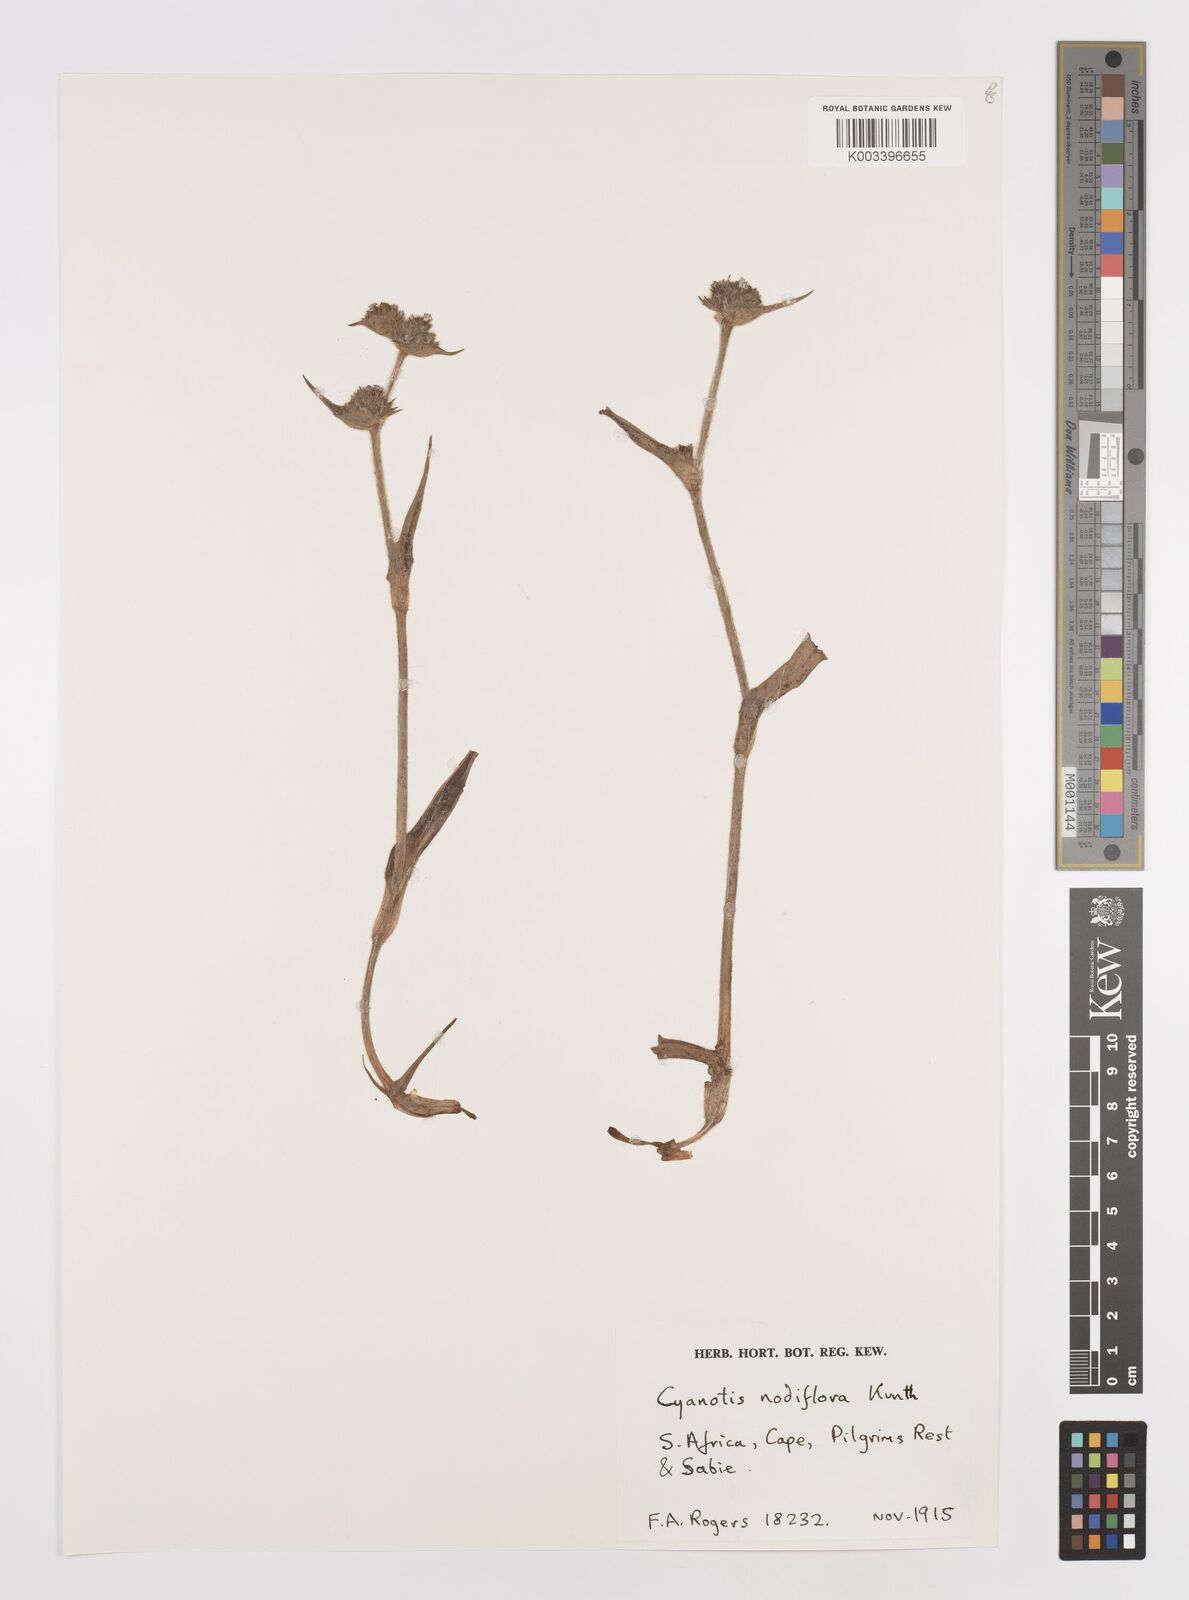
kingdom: Plantae
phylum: Tracheophyta
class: Liliopsida
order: Commelinales
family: Commelinaceae
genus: Cyanotis
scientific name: Cyanotis speciosa
